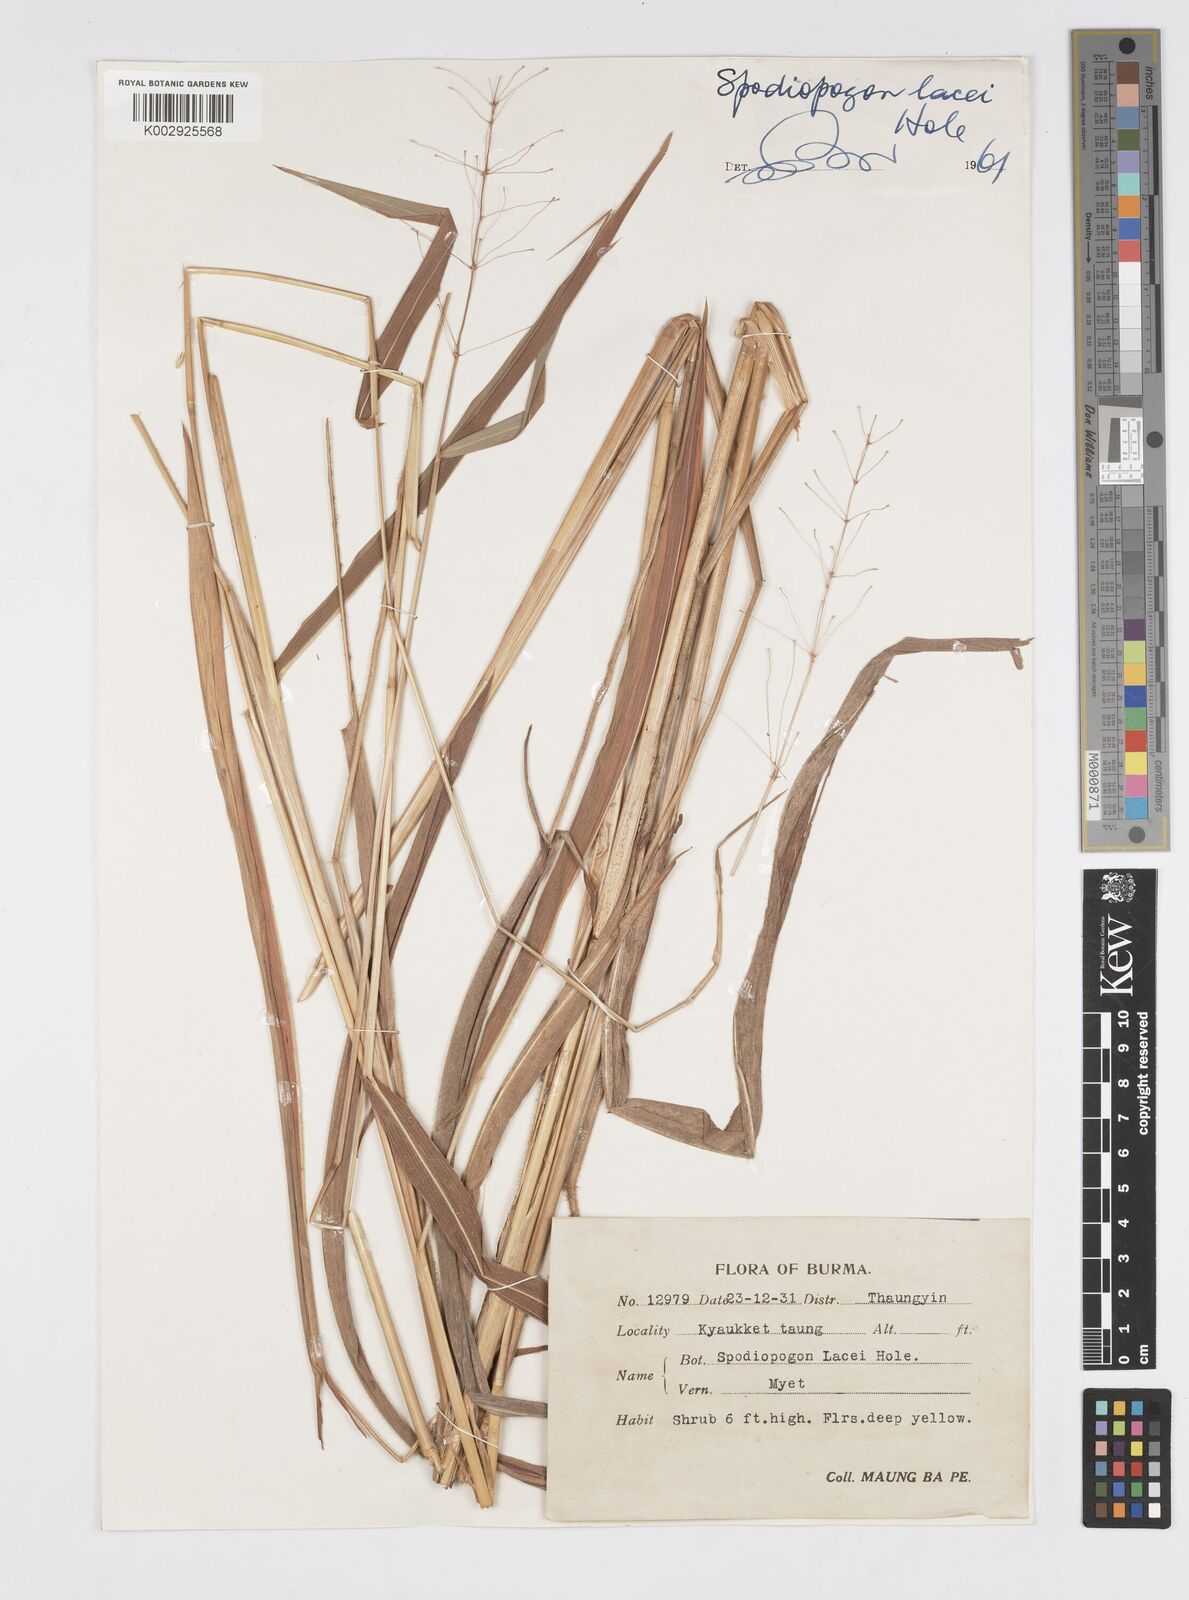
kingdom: Plantae
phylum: Tracheophyta
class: Liliopsida
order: Poales
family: Poaceae
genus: Spodiopogon
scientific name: Spodiopogon lacei
